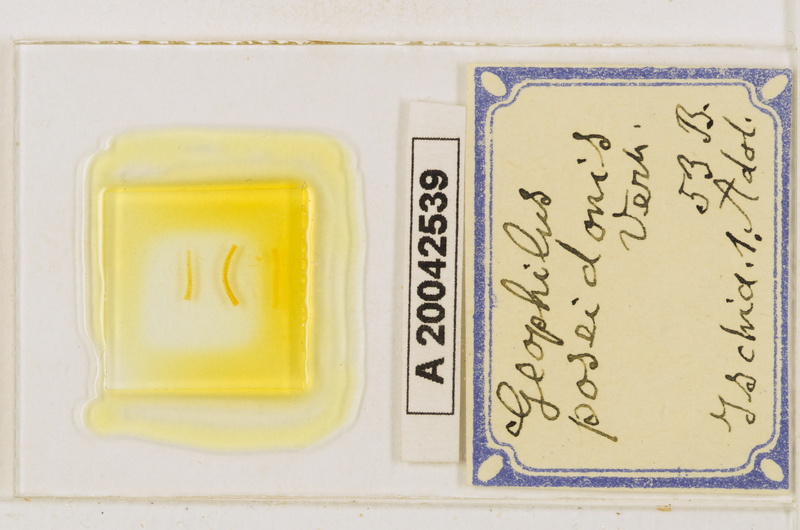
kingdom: Animalia
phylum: Arthropoda
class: Chilopoda
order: Geophilomorpha
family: Geophilidae
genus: Tuoba
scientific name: Tuoba poseidonis
